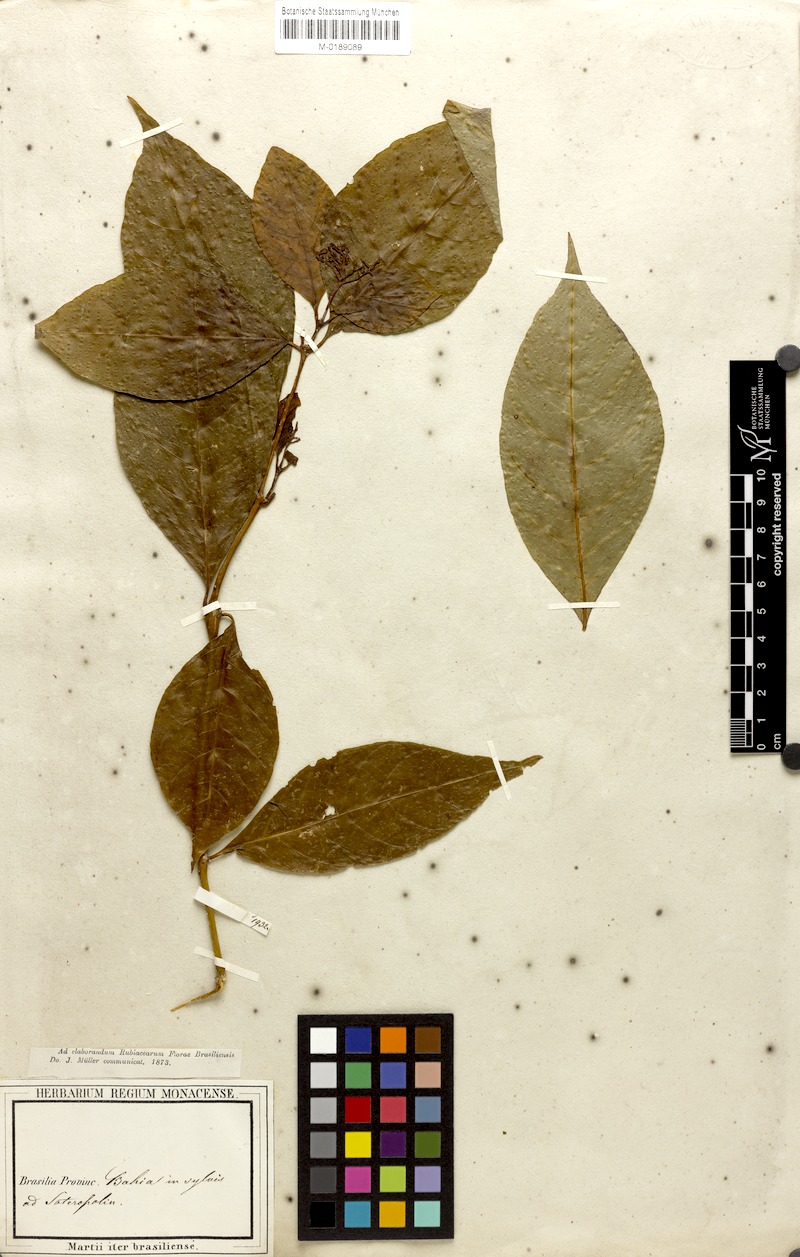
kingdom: Plantae
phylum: Tracheophyta
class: Magnoliopsida
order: Gentianales
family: Rubiaceae
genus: Psychotria
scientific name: Psychotria soteropolitana
